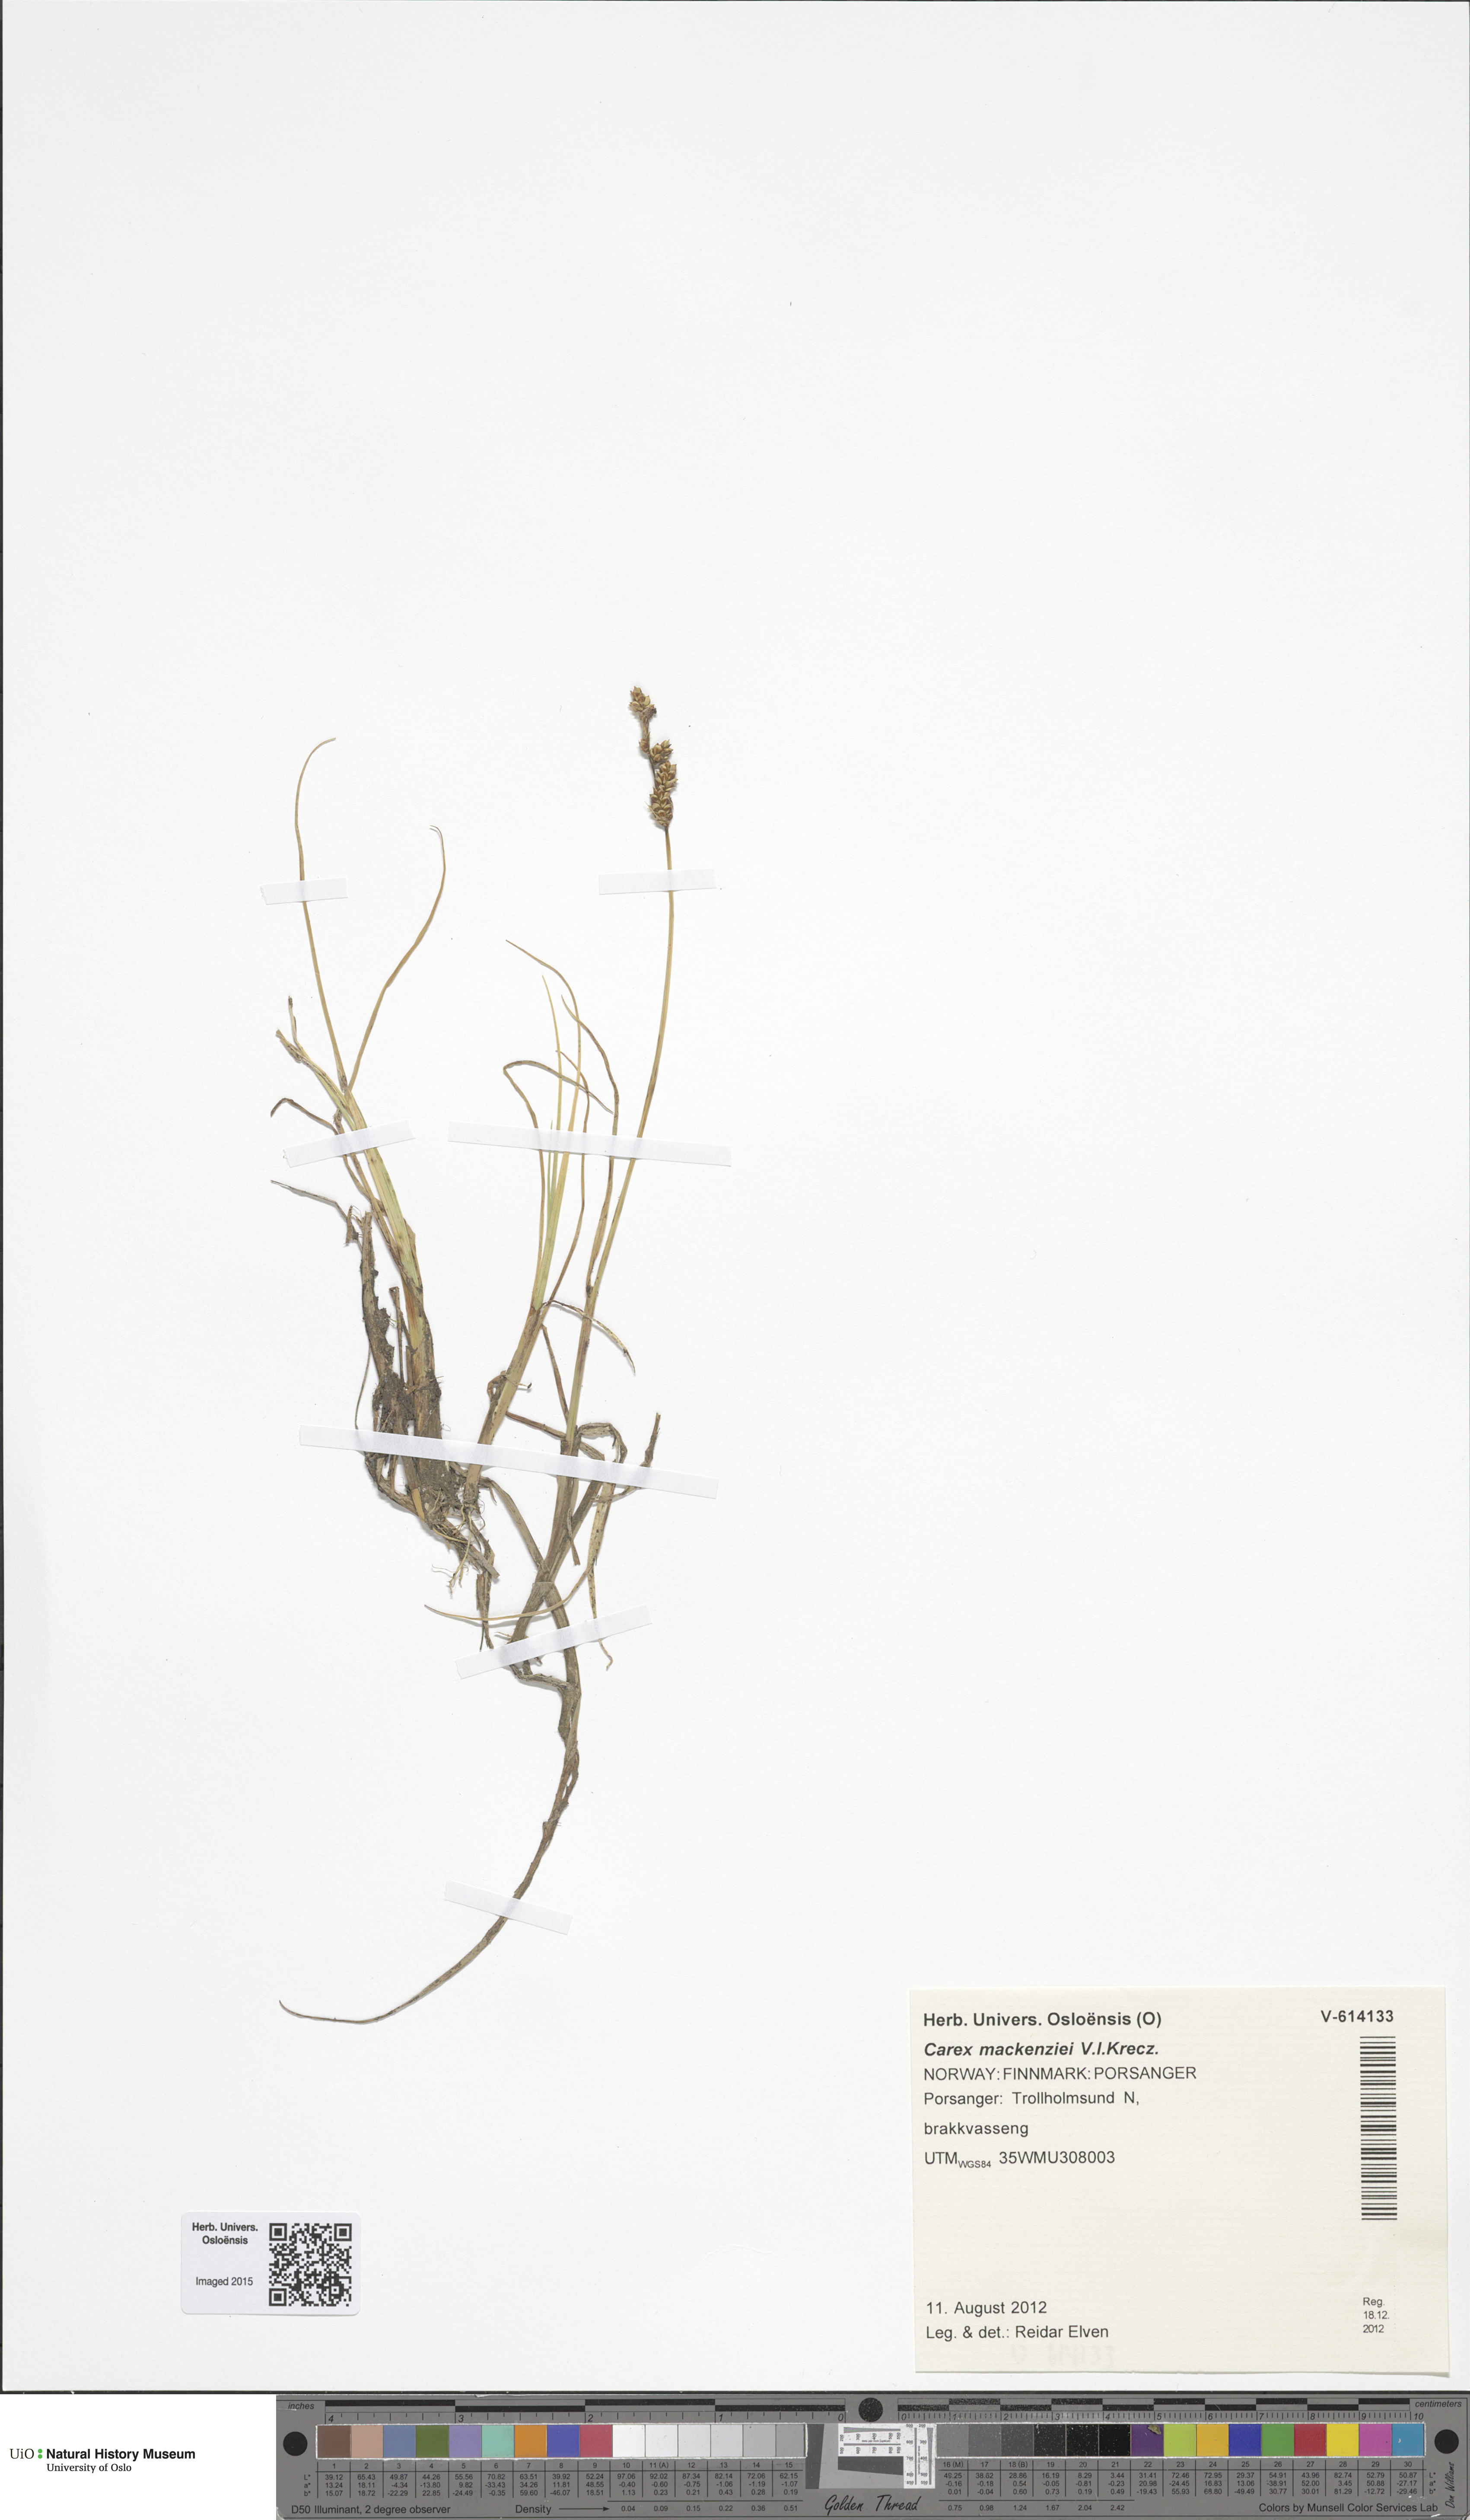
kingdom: Plantae
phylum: Tracheophyta
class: Liliopsida
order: Poales
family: Cyperaceae
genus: Carex
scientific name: Carex mackenziei
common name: Mackenzie's sedge
